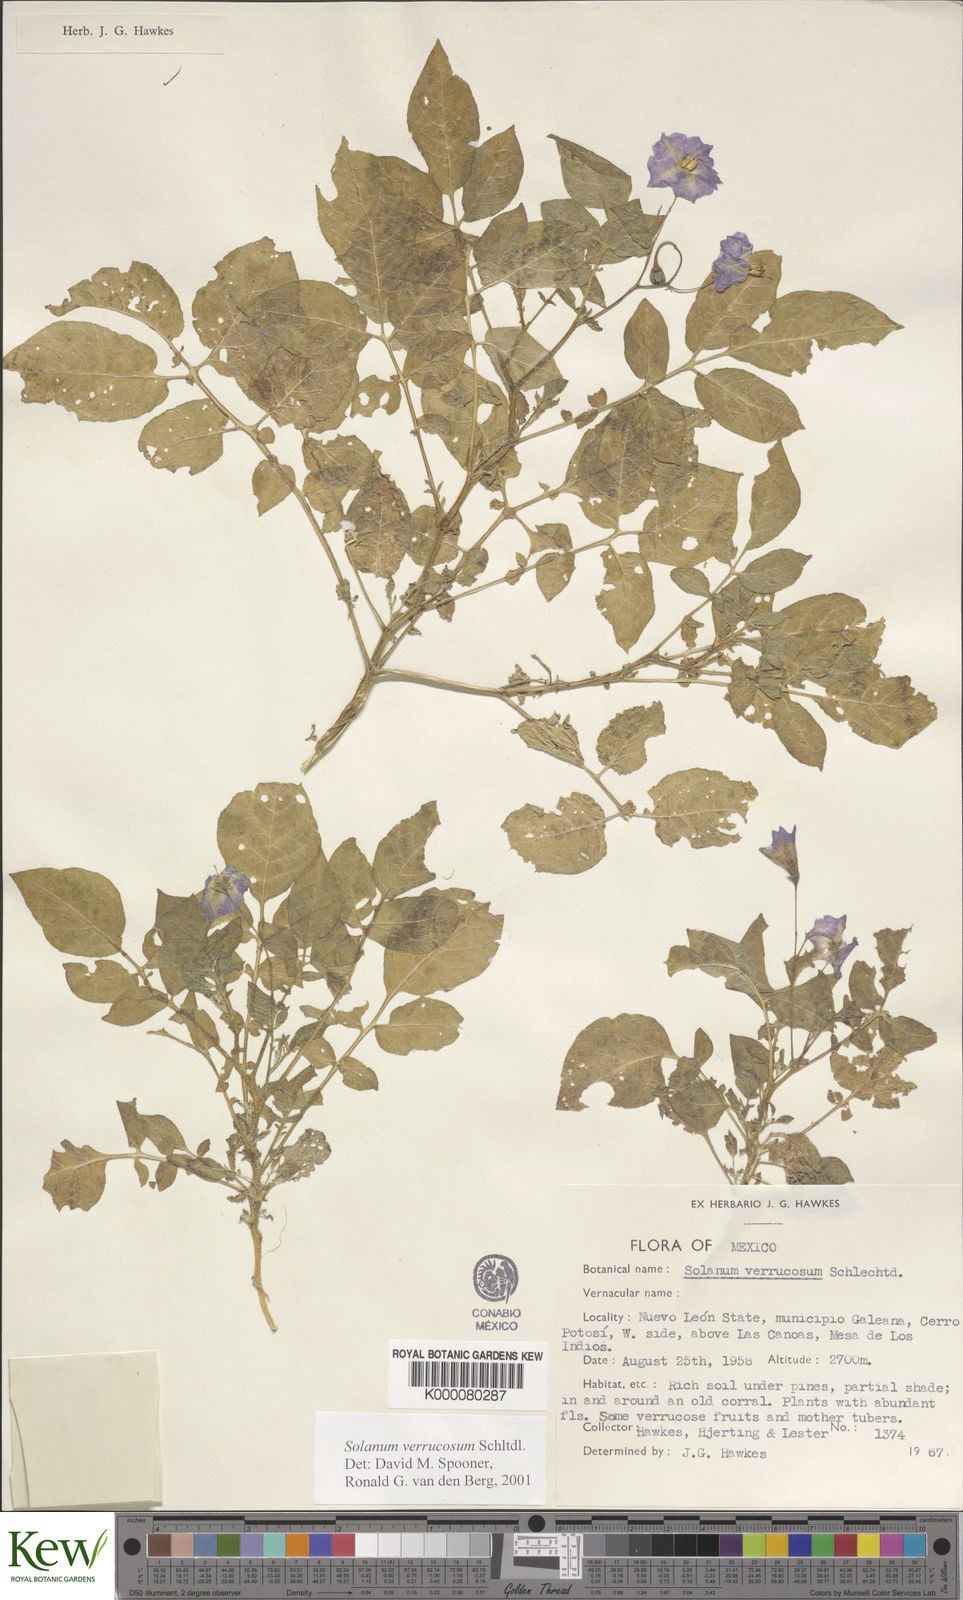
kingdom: Plantae
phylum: Tracheophyta
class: Magnoliopsida
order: Solanales
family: Solanaceae
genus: Solanum
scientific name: Solanum verrucosum
